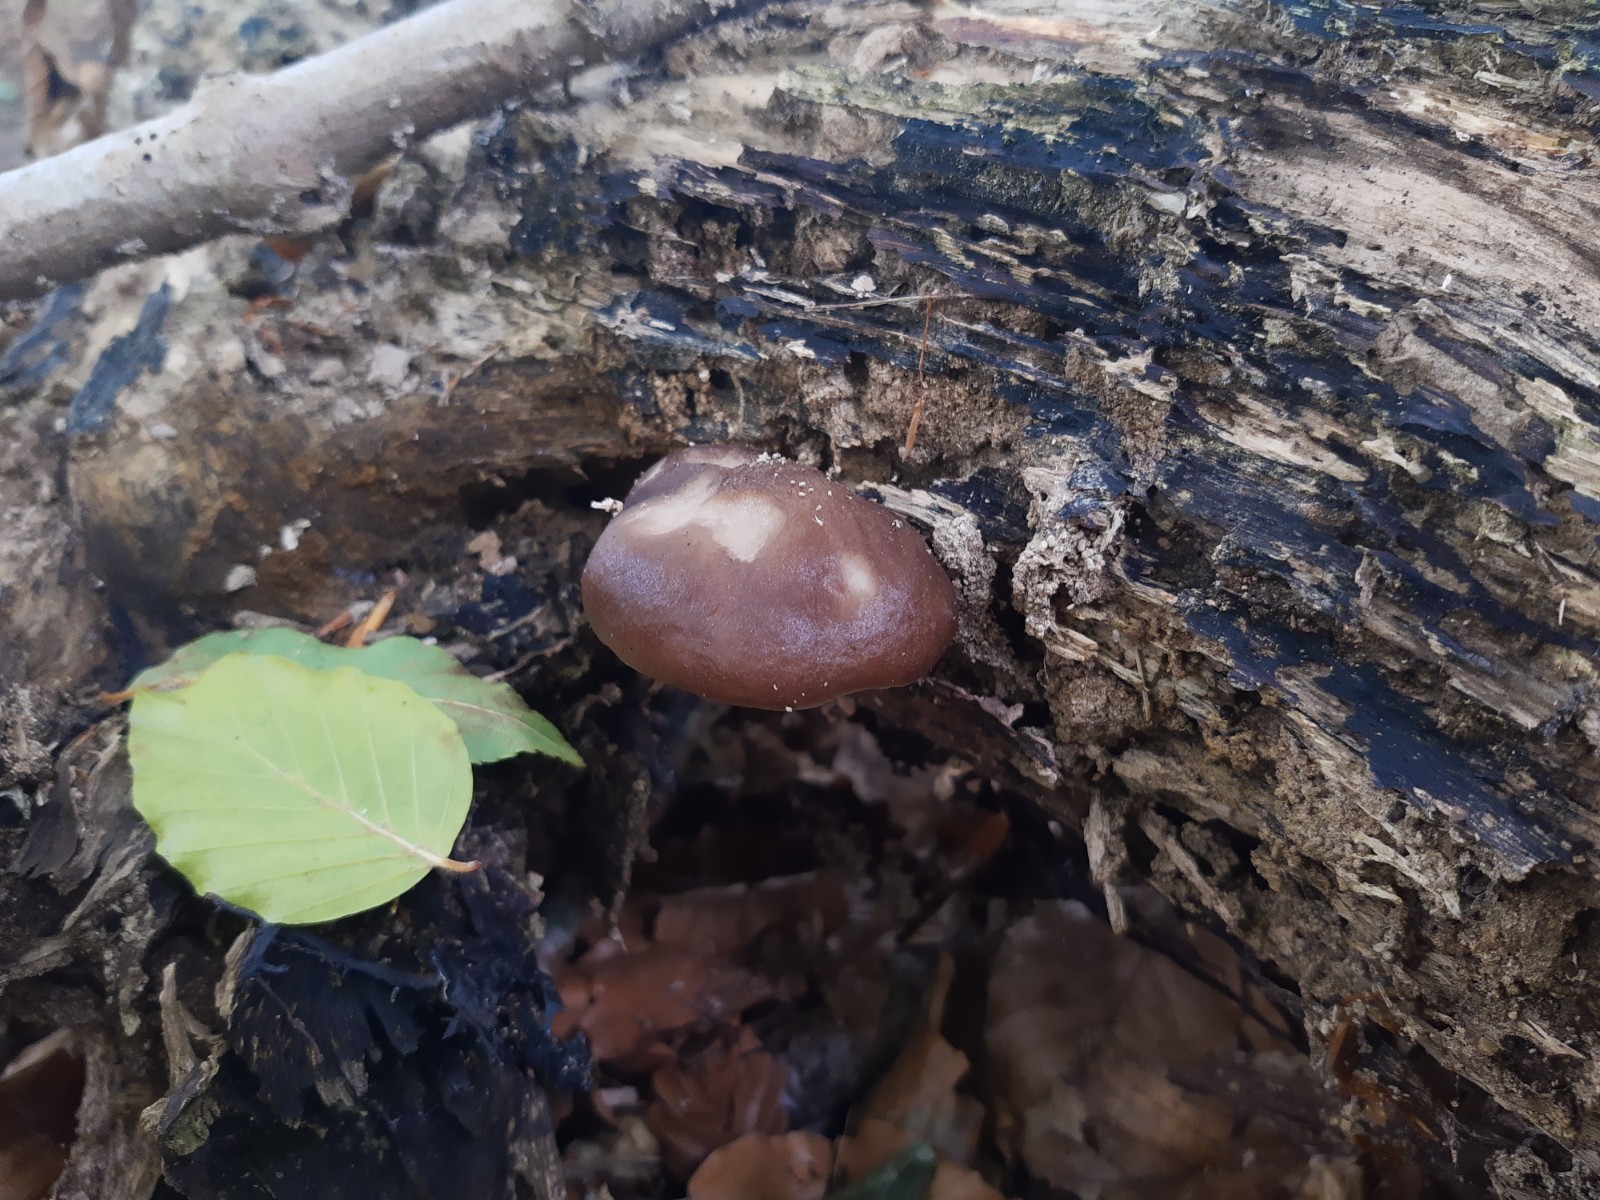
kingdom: Fungi
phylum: Basidiomycota
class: Agaricomycetes
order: Agaricales
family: Pluteaceae
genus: Pluteus
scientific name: Pluteus cervinus
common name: sodfarvet skærmhat
